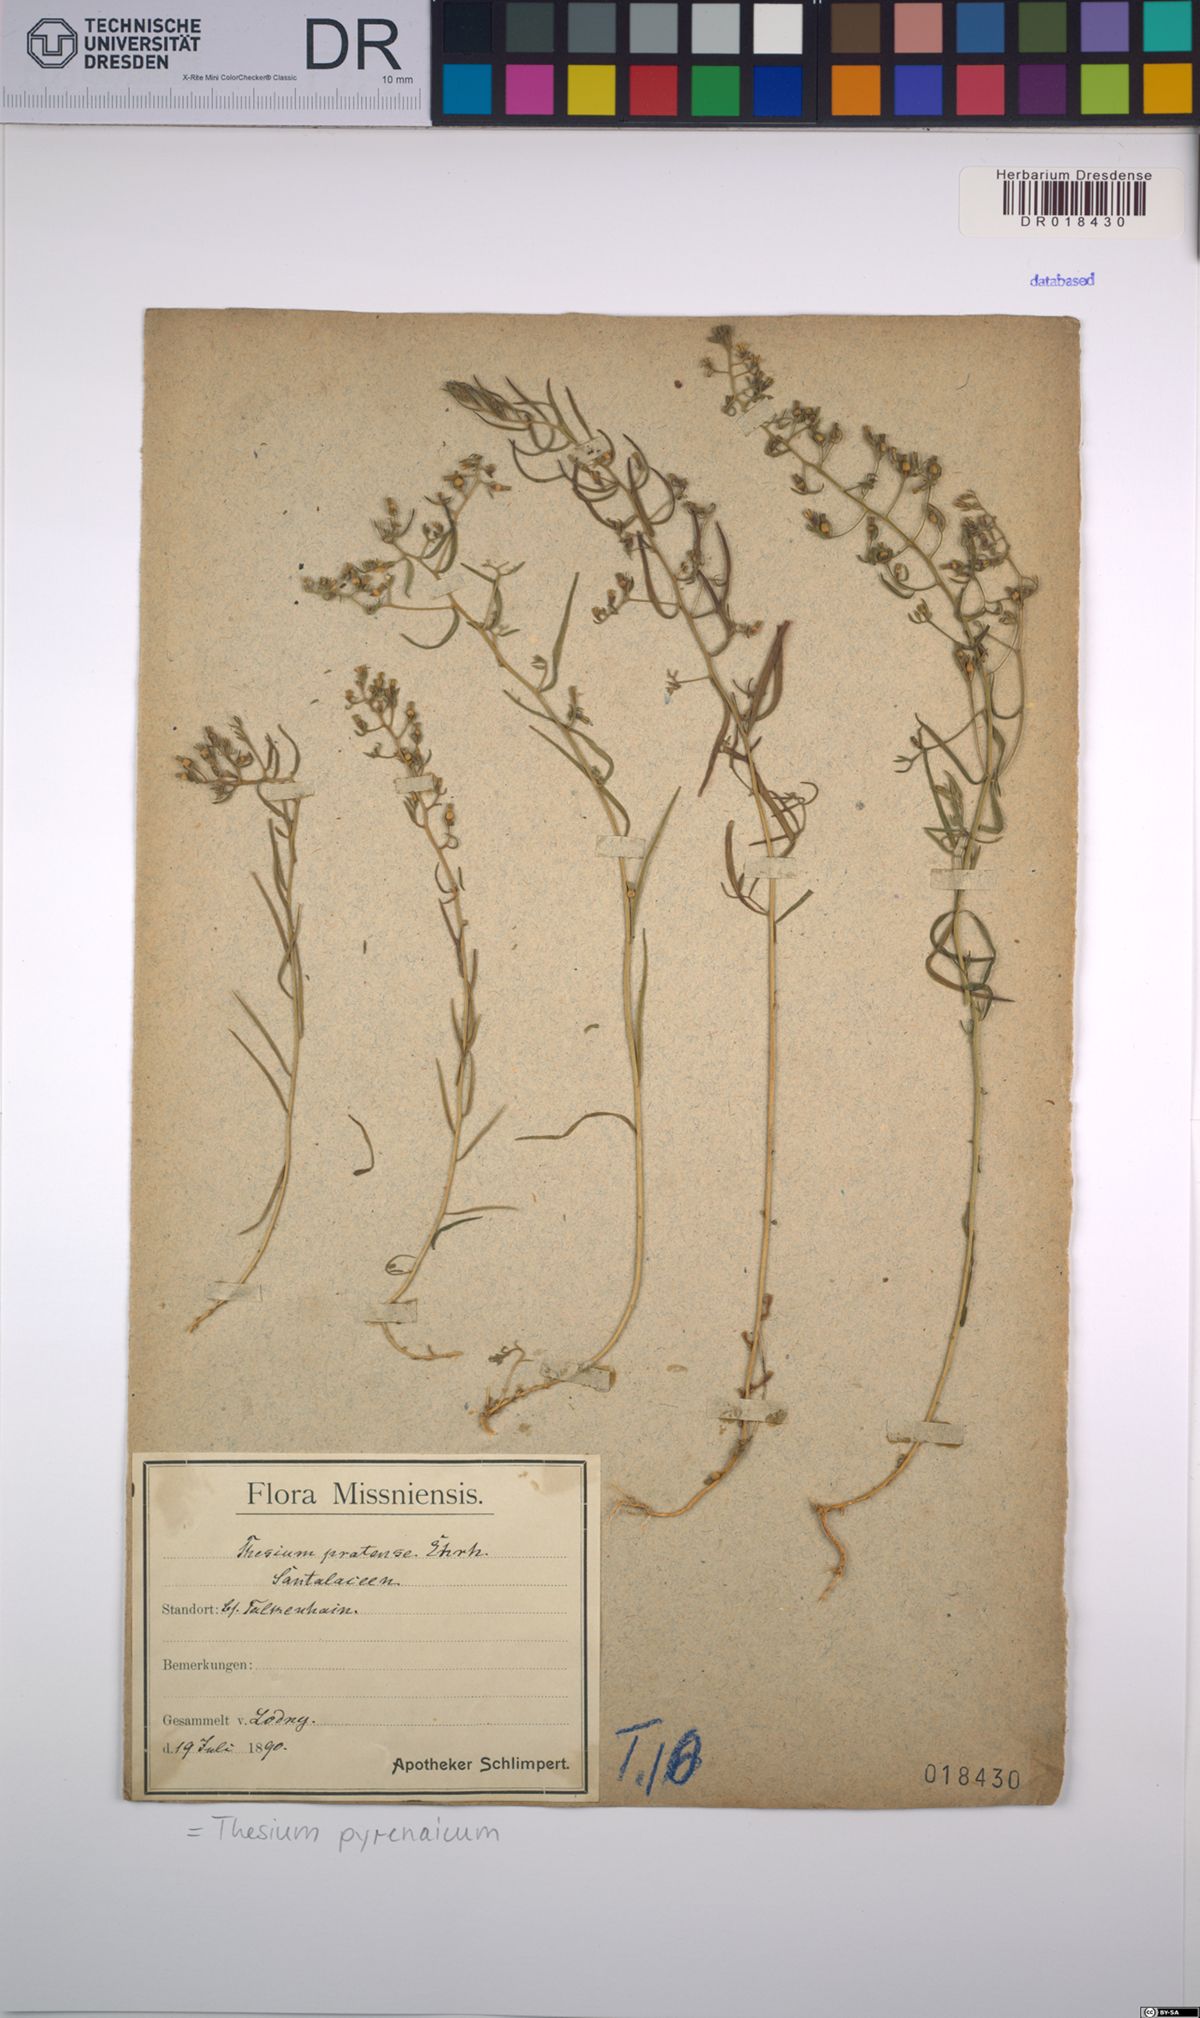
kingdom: Plantae
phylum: Tracheophyta
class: Magnoliopsida
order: Santalales
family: Thesiaceae
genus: Thesium
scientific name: Thesium pyrenaicum
